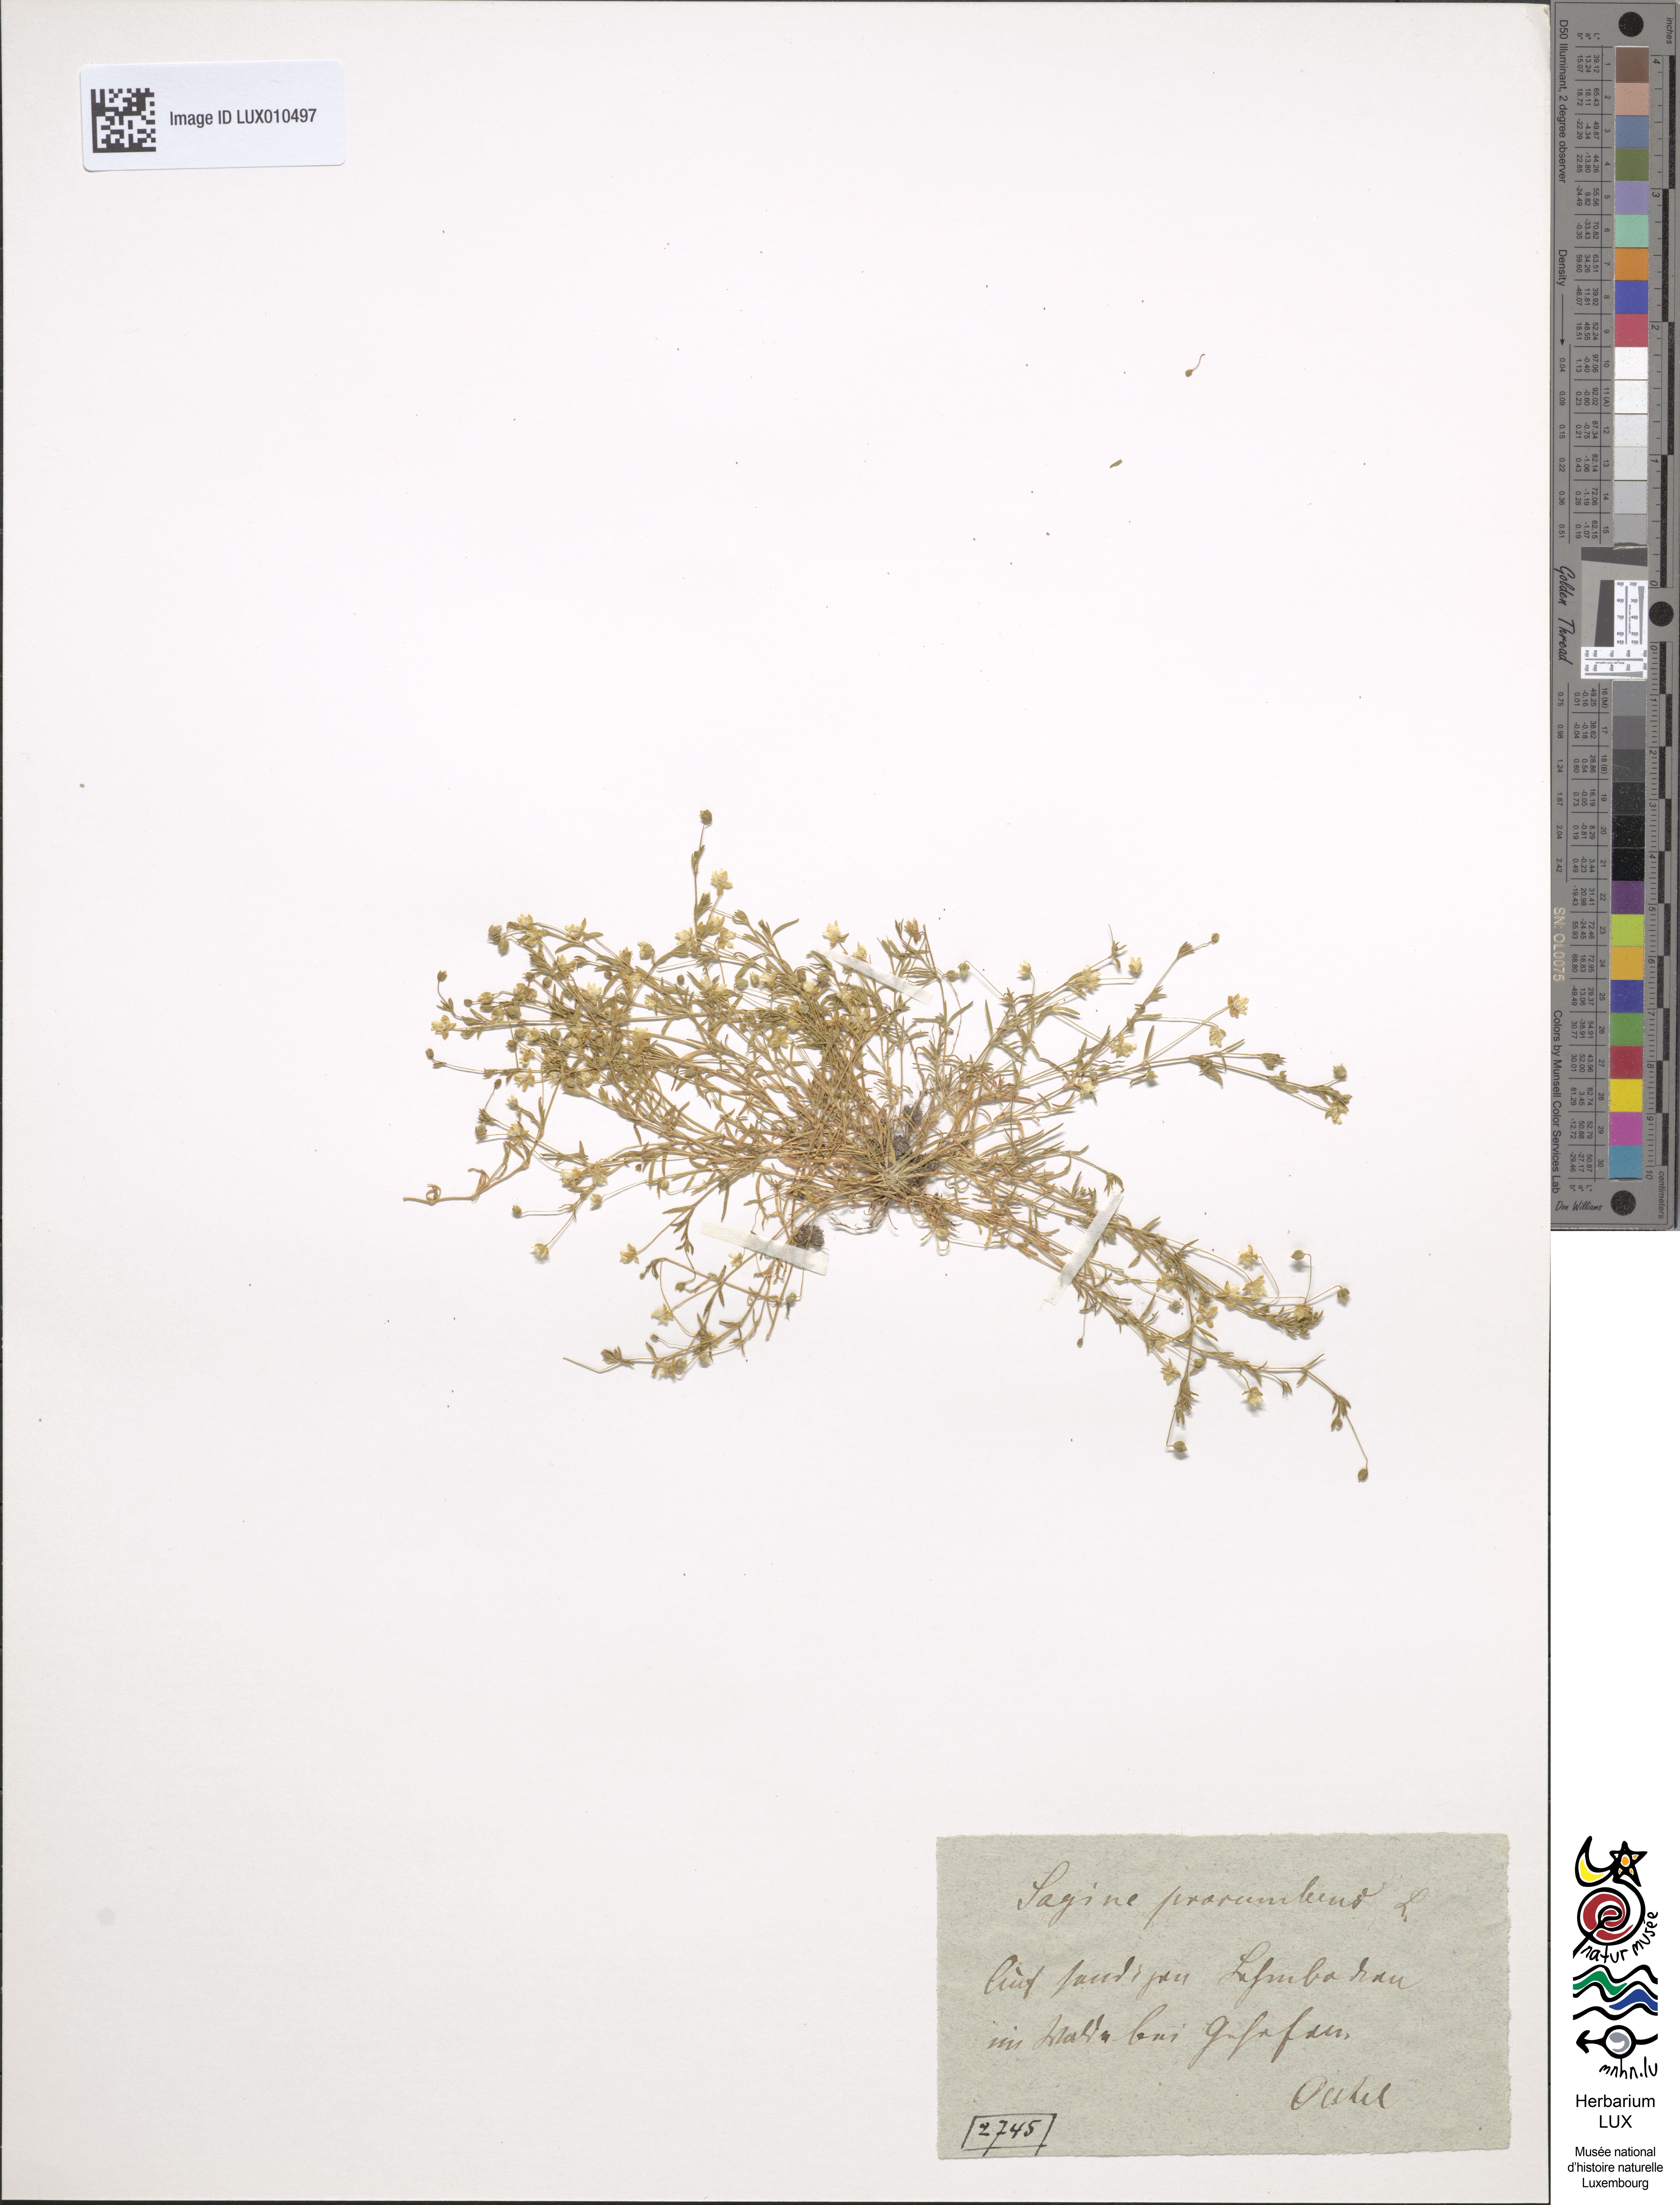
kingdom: Plantae
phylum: Tracheophyta
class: Magnoliopsida
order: Caryophyllales
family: Caryophyllaceae
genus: Sagina
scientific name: Sagina procumbens
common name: Procumbent pearlwort
